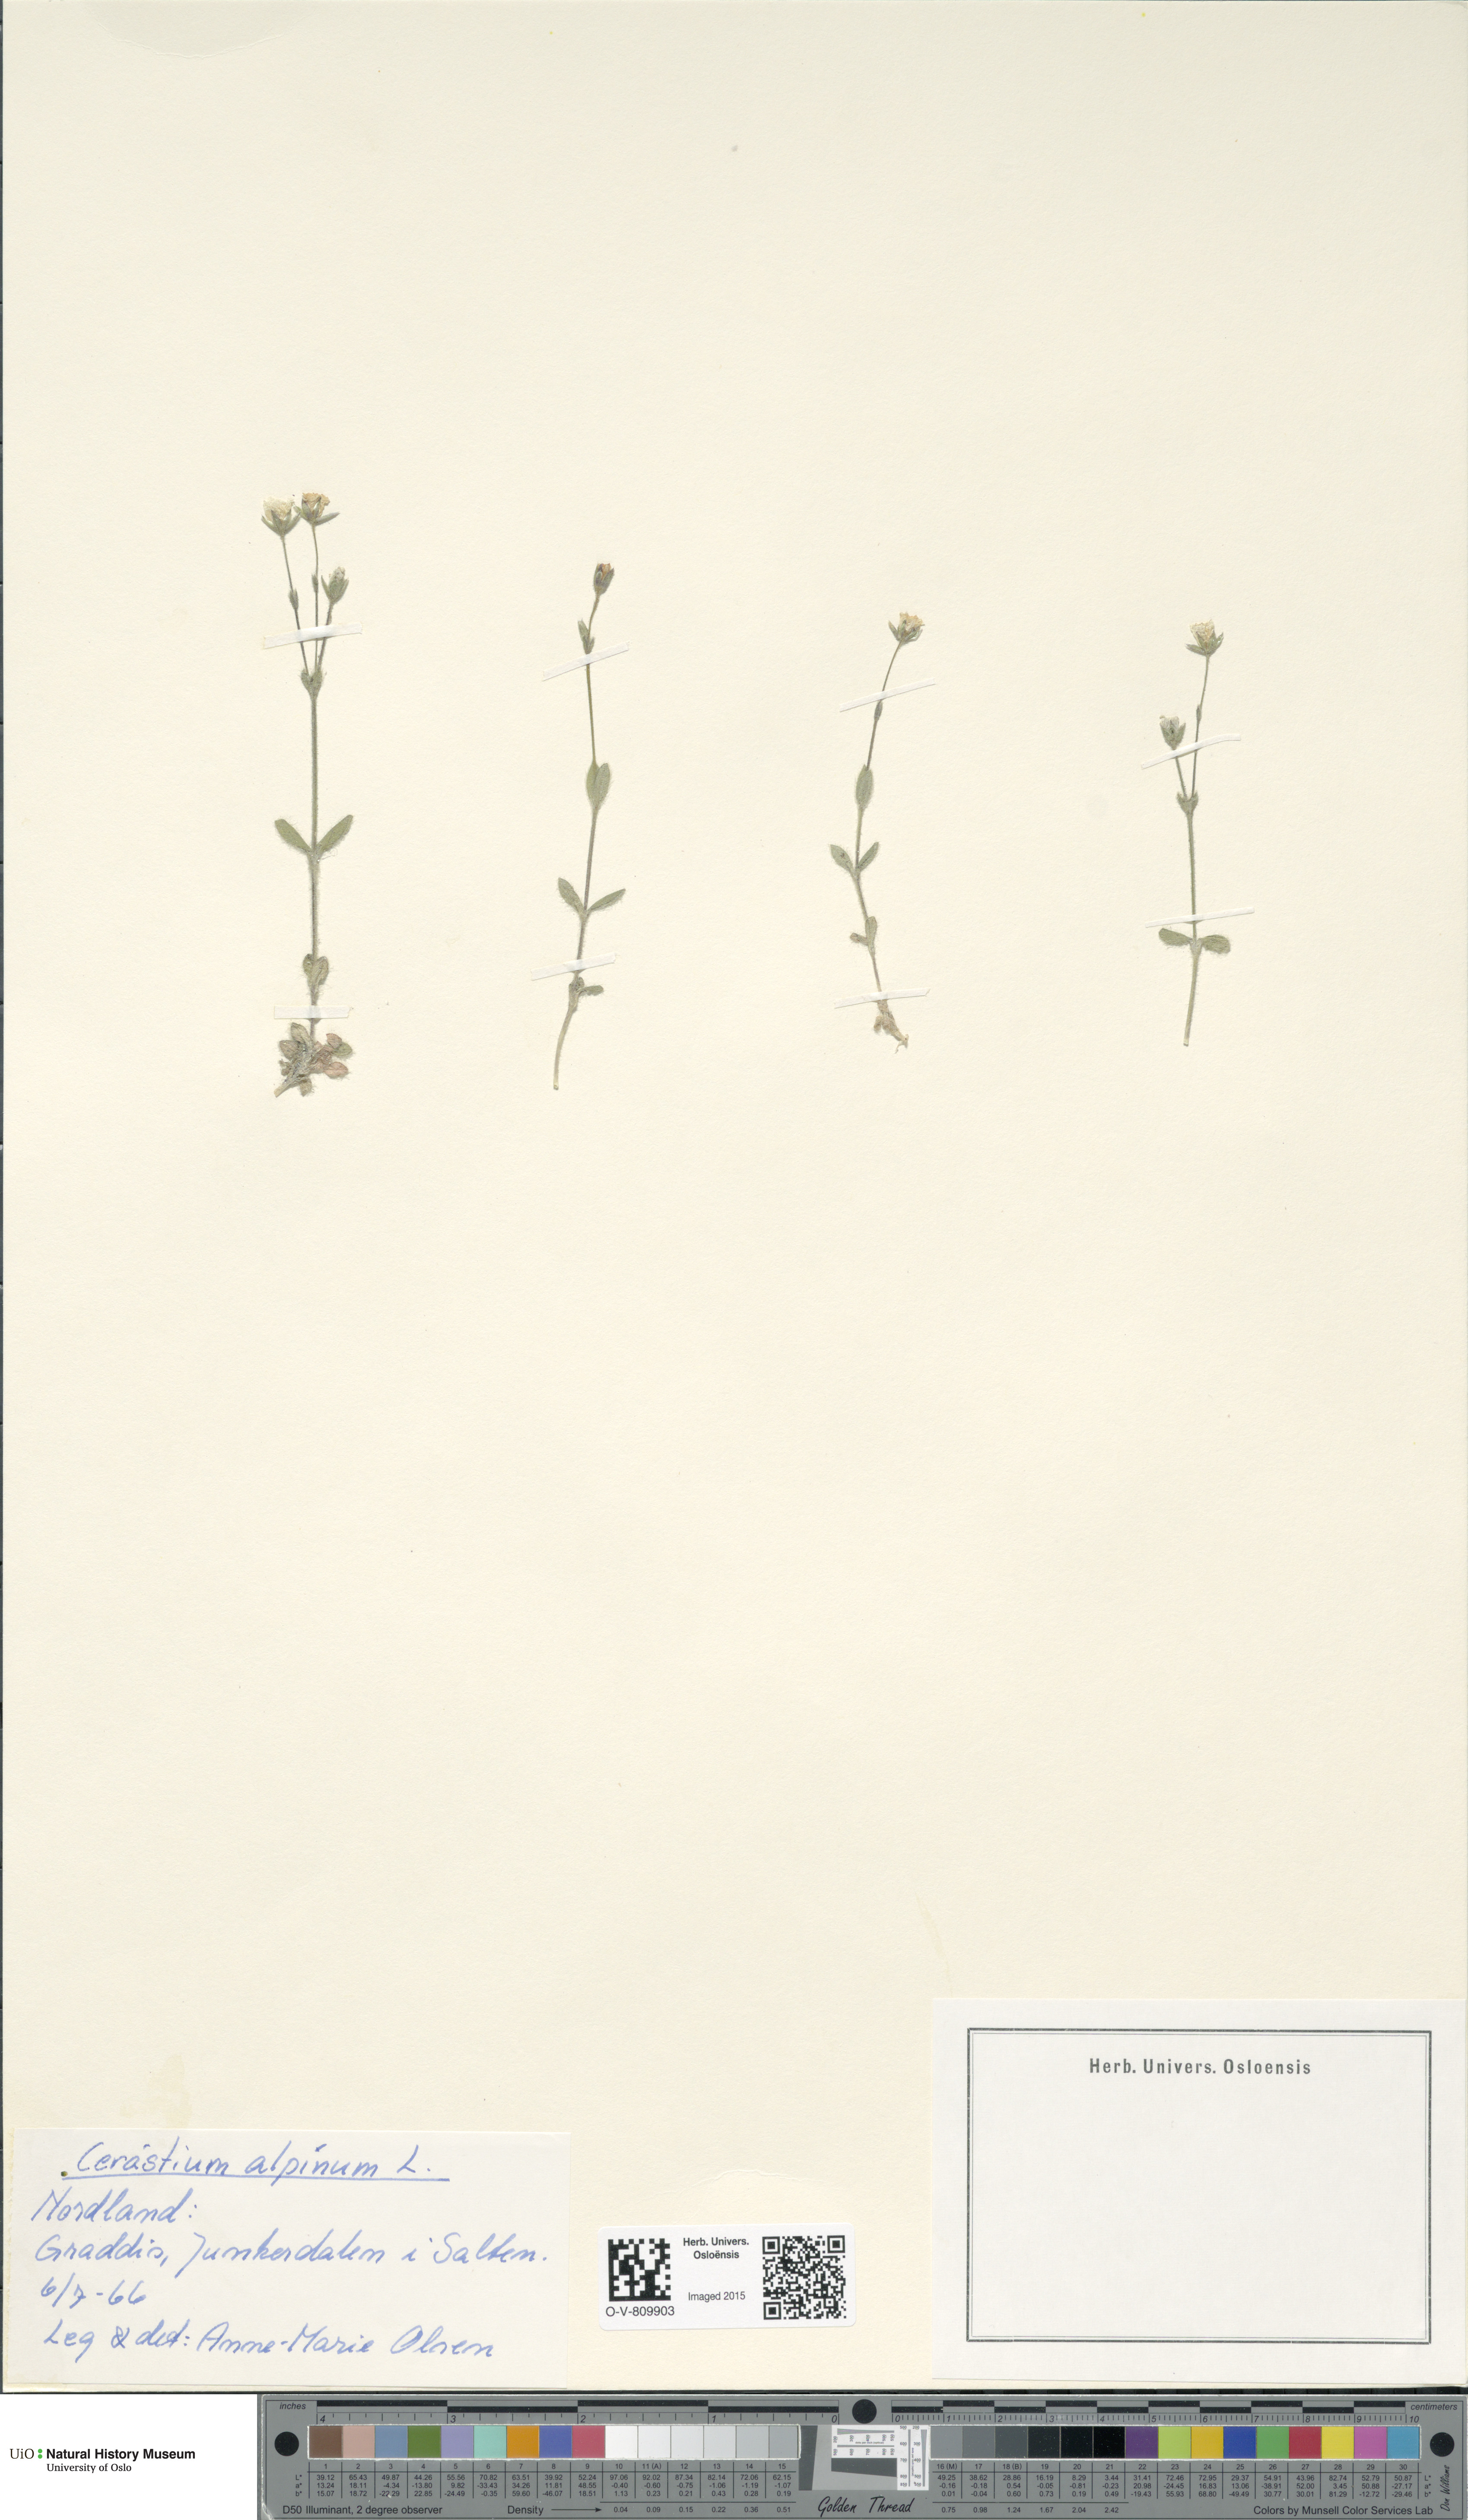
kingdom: Plantae
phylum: Tracheophyta
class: Magnoliopsida
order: Caryophyllales
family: Caryophyllaceae
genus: Cerastium
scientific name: Cerastium alpinum
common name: Alpine mouse-ear
